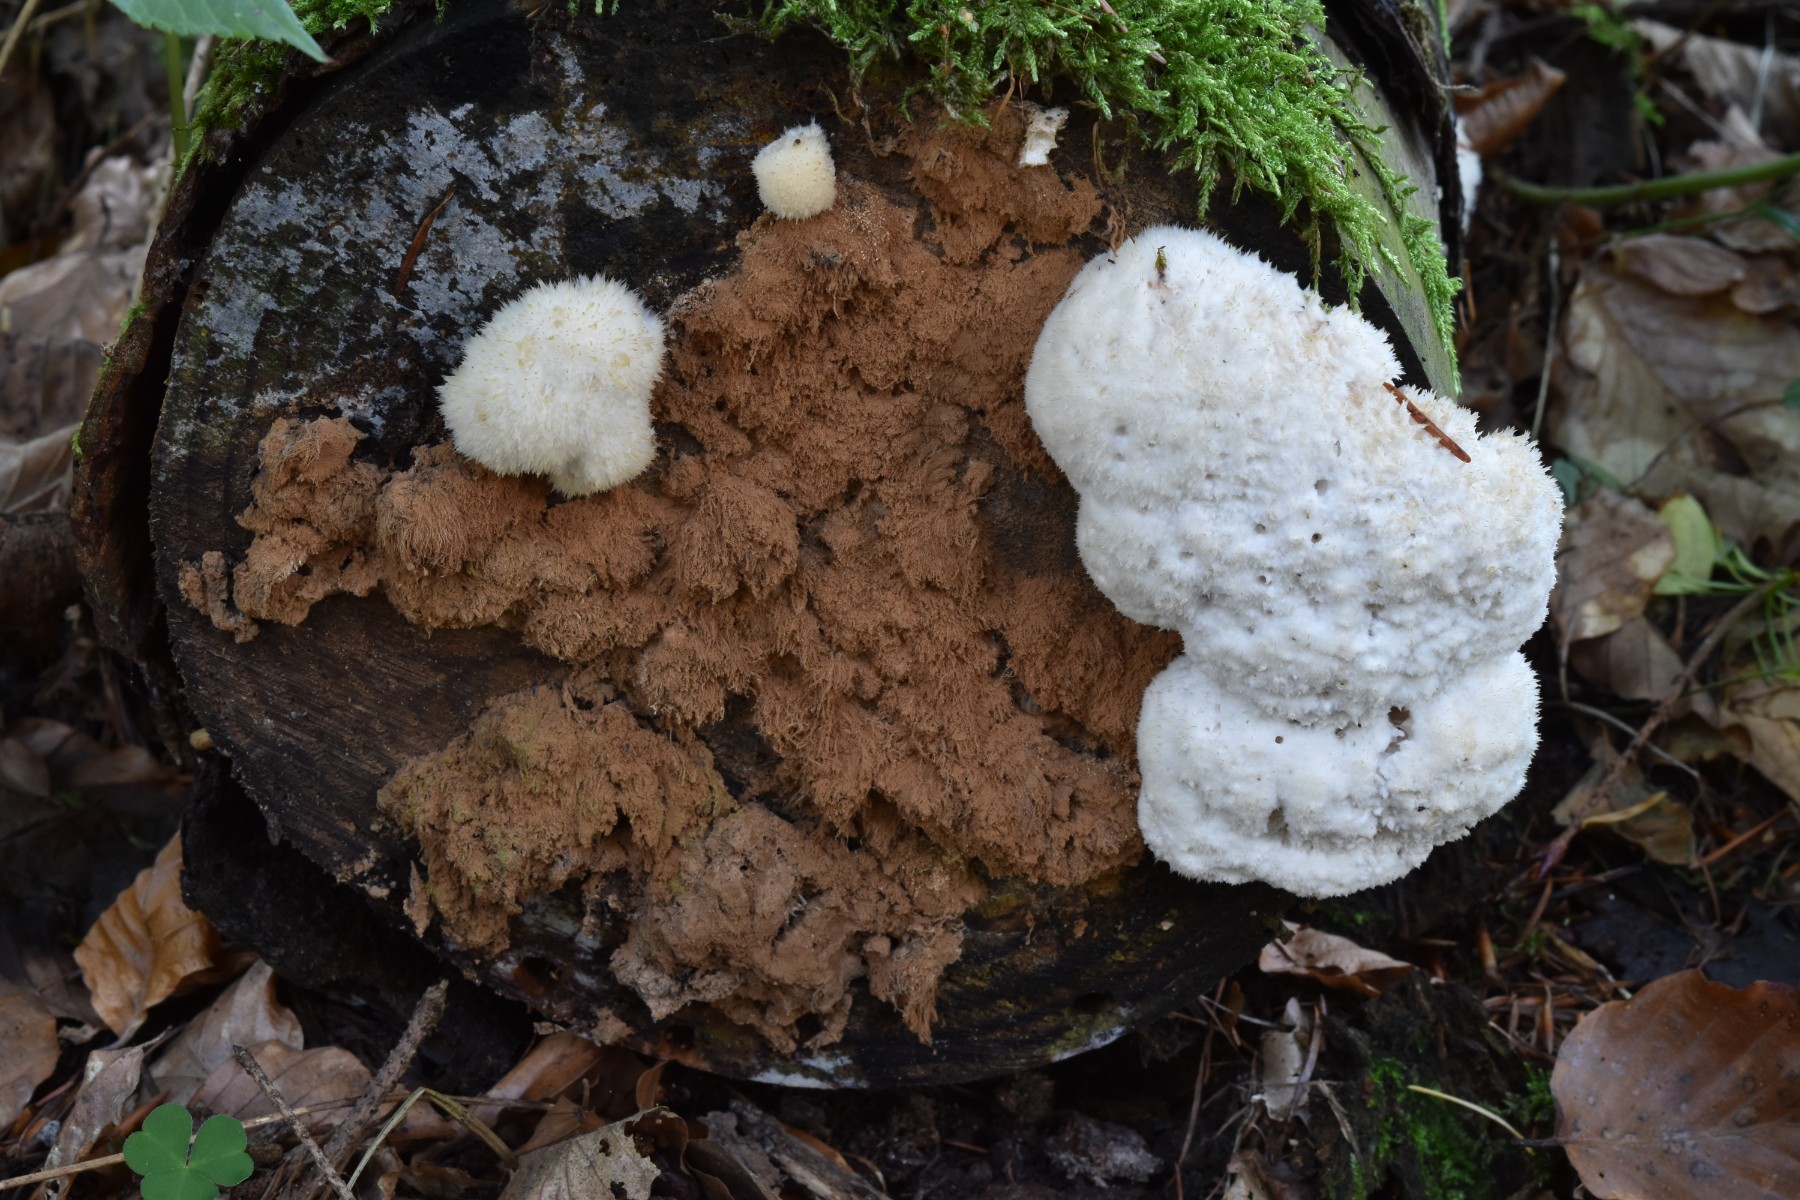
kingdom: Fungi
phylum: Basidiomycota
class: Agaricomycetes
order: Polyporales
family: Dacryobolaceae
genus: Postia
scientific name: Postia ptychogaster
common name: støvende kødporesvamp
